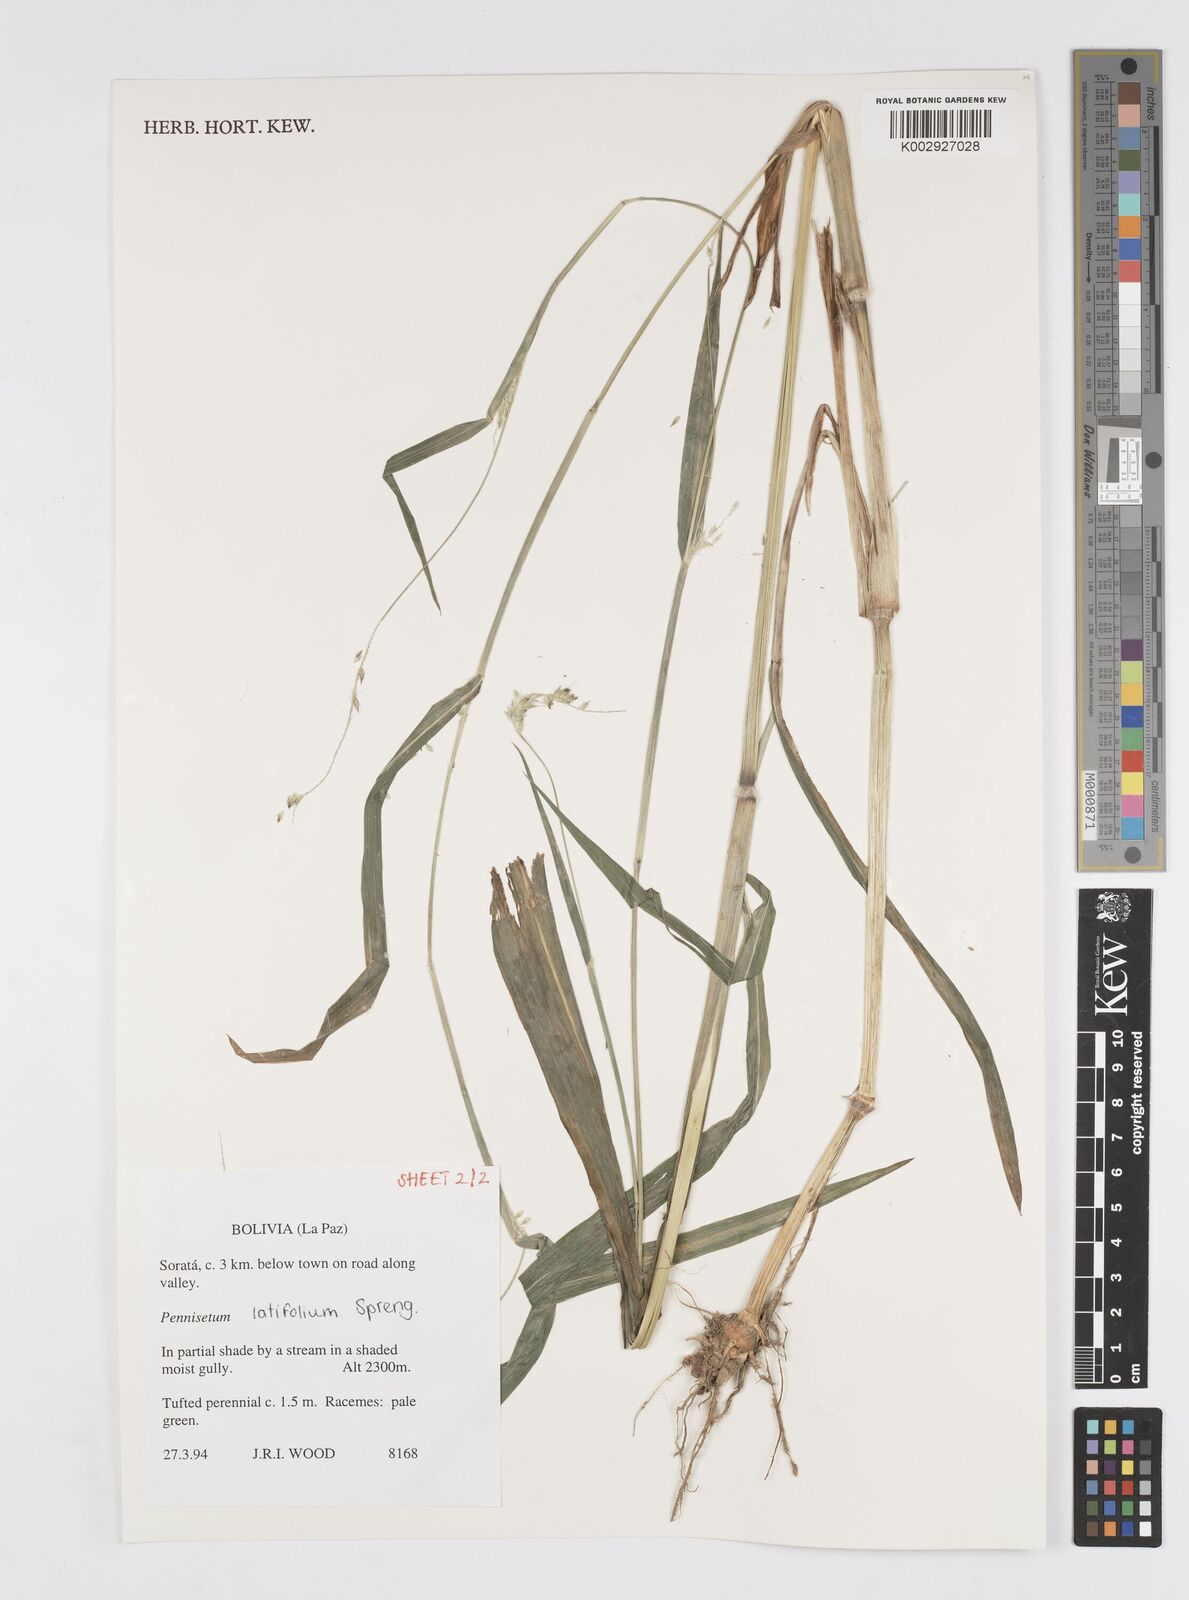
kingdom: Plantae
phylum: Tracheophyta
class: Liliopsida
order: Poales
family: Poaceae
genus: Cenchrus
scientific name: Cenchrus latifolius
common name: Sandbur
